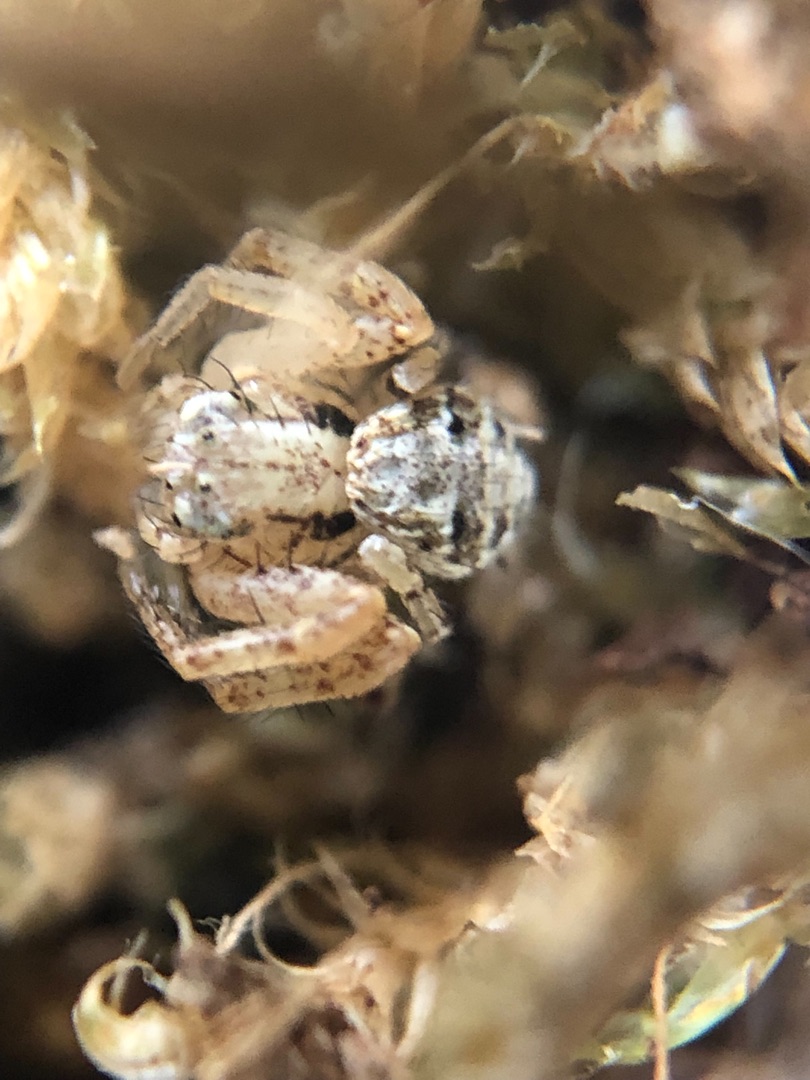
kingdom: Animalia
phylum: Arthropoda
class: Arachnida
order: Araneae
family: Thomisidae
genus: Xysticus
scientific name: Xysticus
